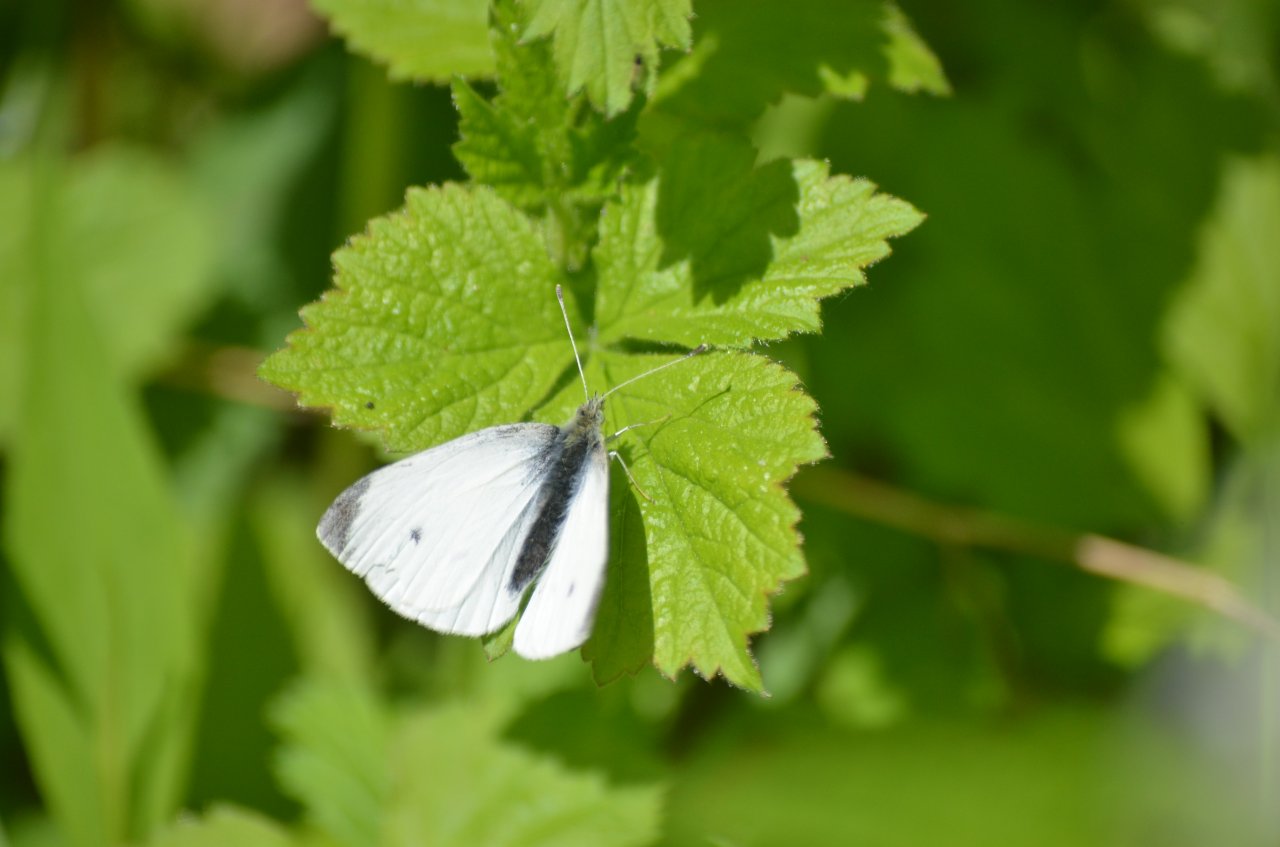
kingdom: Animalia
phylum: Arthropoda
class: Insecta
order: Lepidoptera
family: Pieridae
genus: Pieris
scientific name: Pieris rapae
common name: Cabbage White
